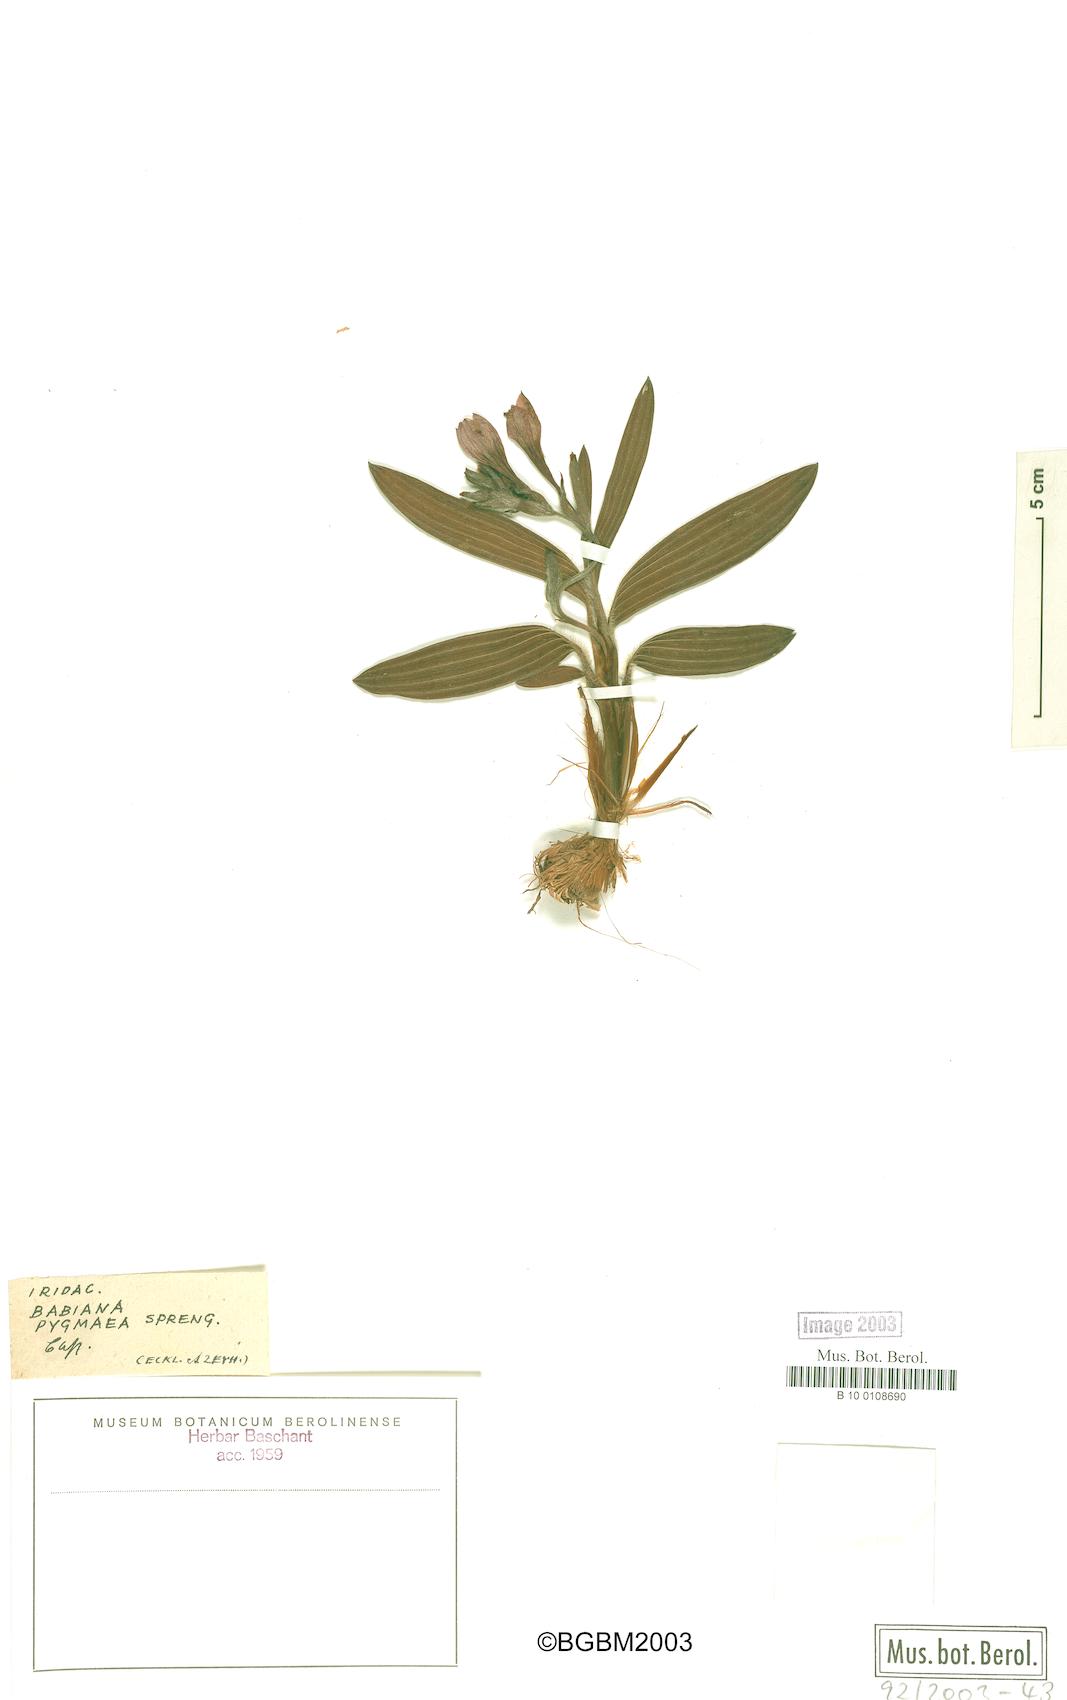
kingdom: Plantae
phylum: Tracheophyta
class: Liliopsida
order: Asparagales
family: Iridaceae
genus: Babiana
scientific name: Babiana pygmaea
